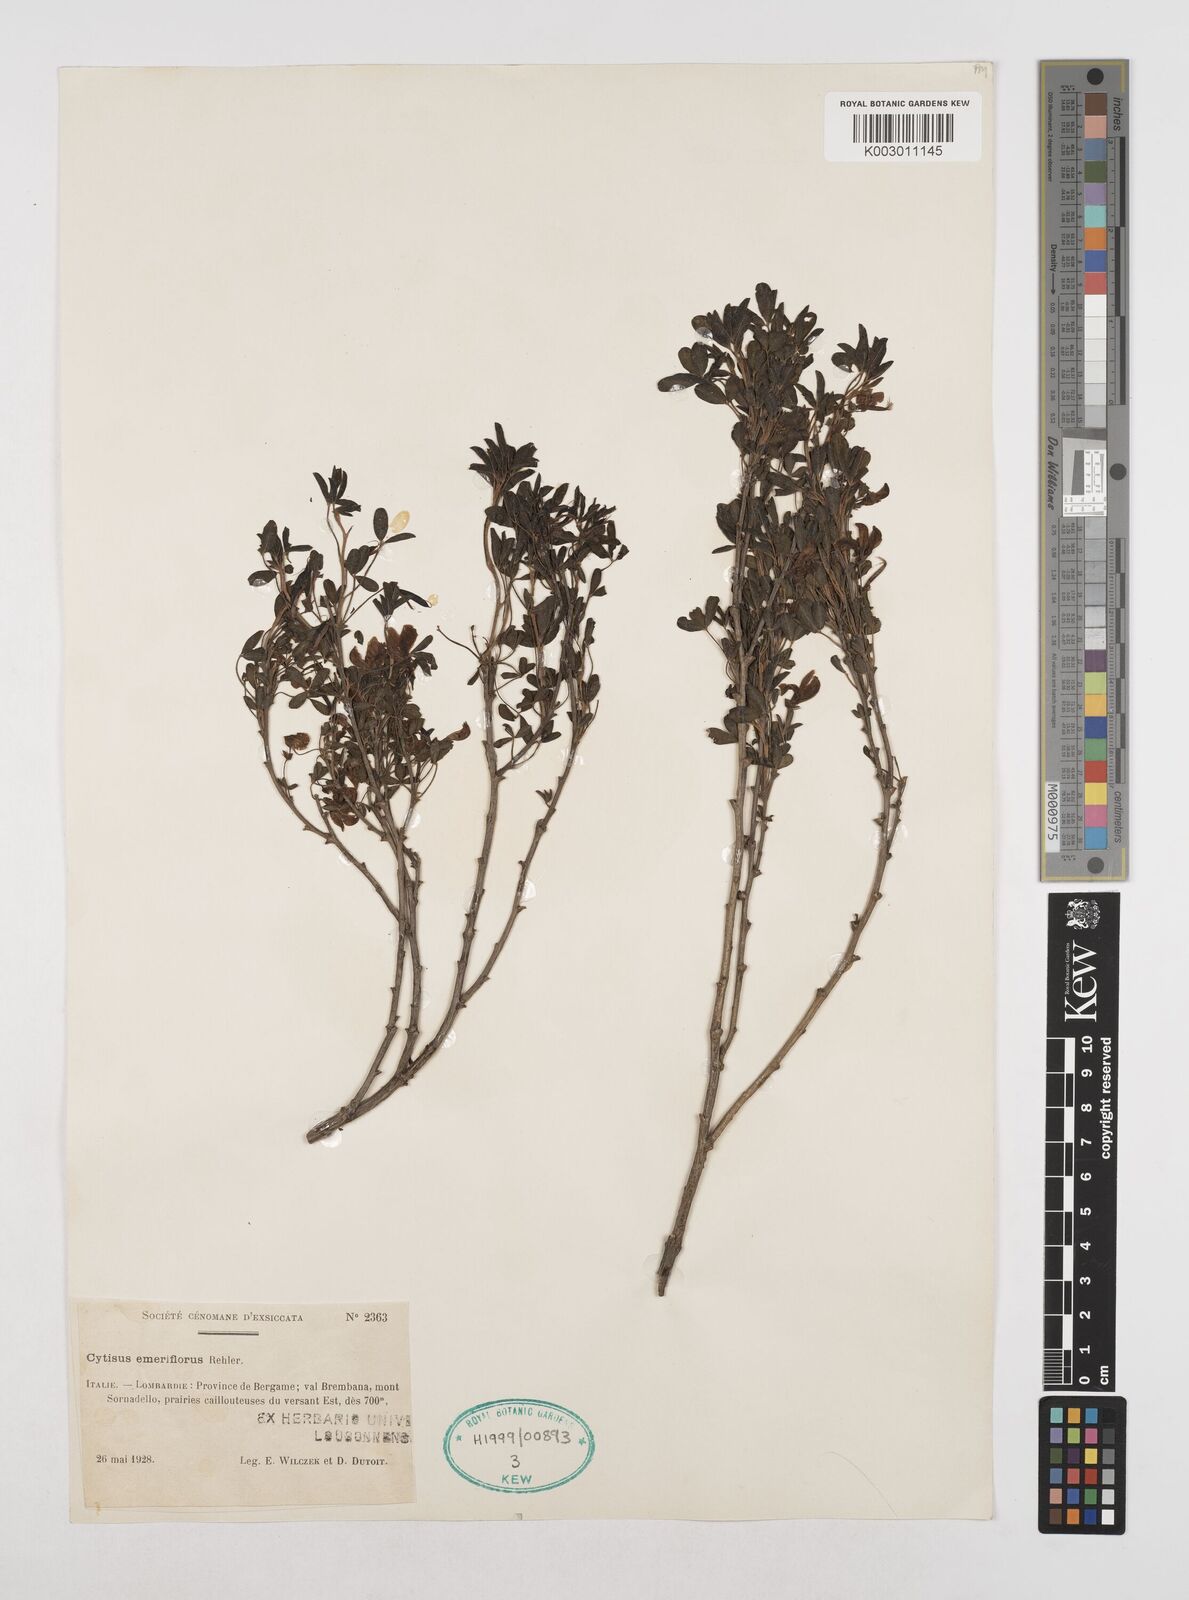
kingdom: Plantae
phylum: Tracheophyta
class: Magnoliopsida
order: Fabales
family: Fabaceae
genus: Cytisus
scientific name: Cytisus emeriflorus
